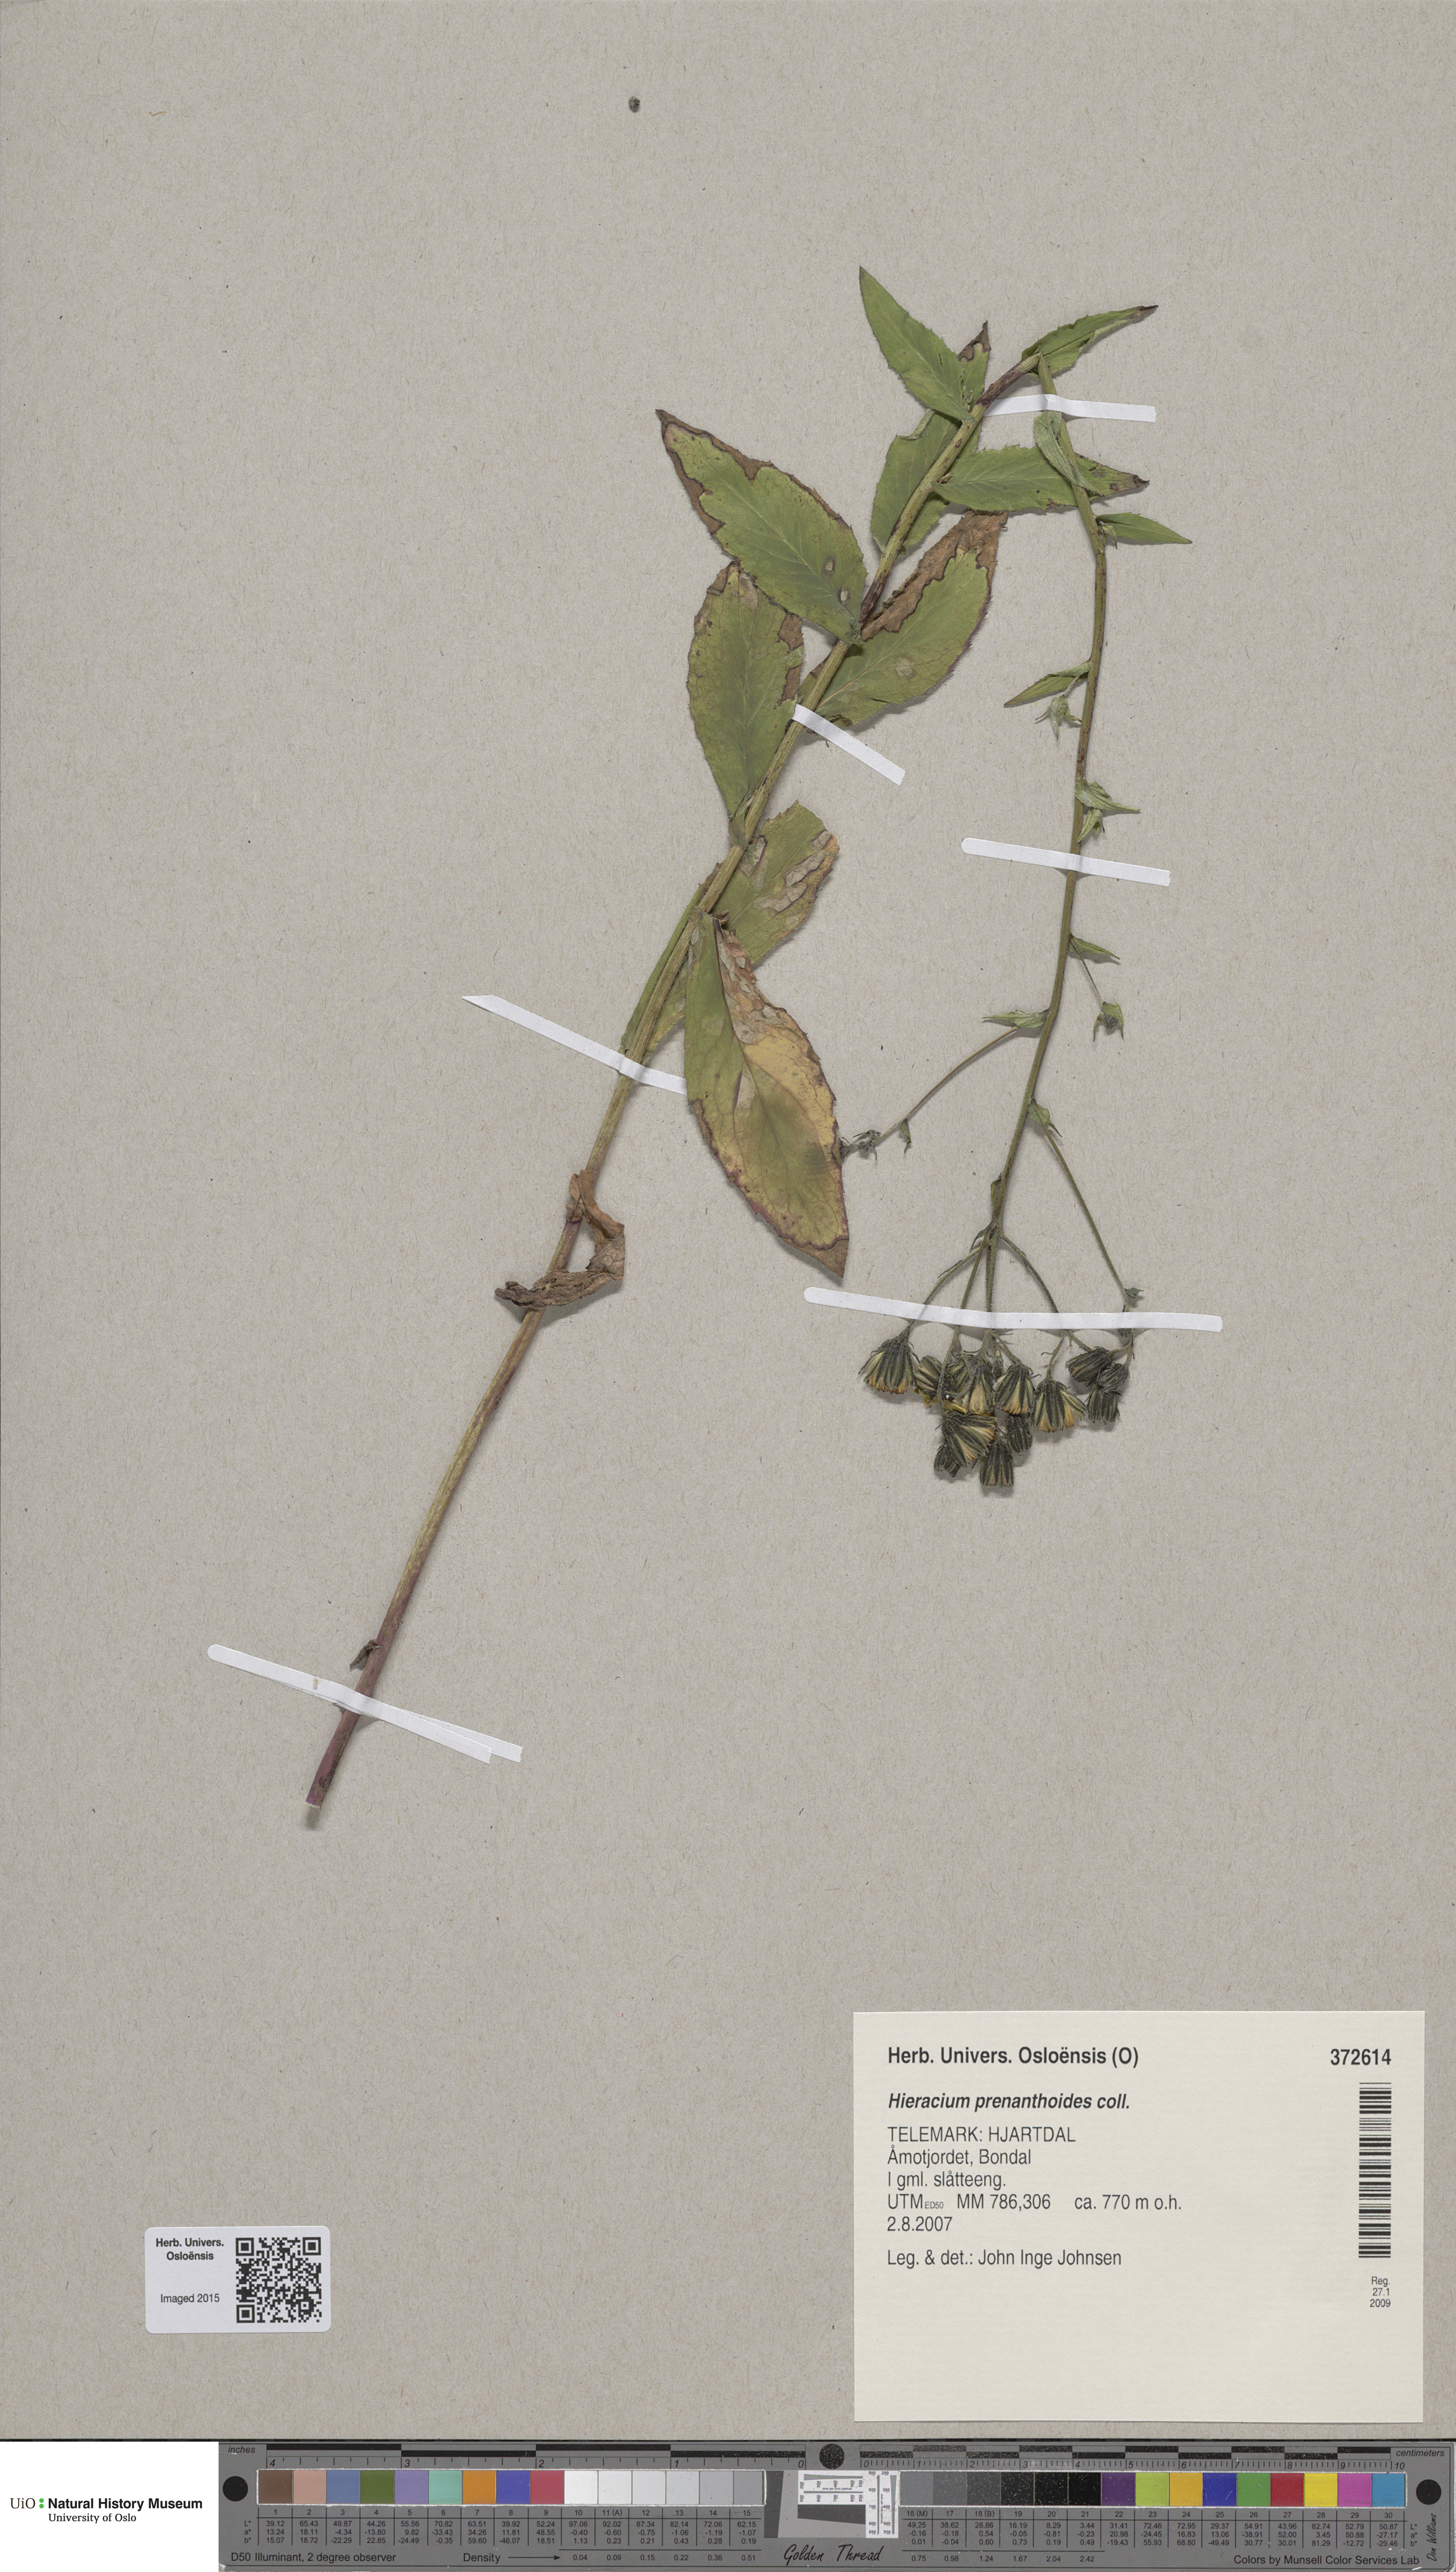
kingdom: Plantae
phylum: Tracheophyta
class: Magnoliopsida
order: Asterales
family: Asteraceae
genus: Hieracium
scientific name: Hieracium prenanthoides
